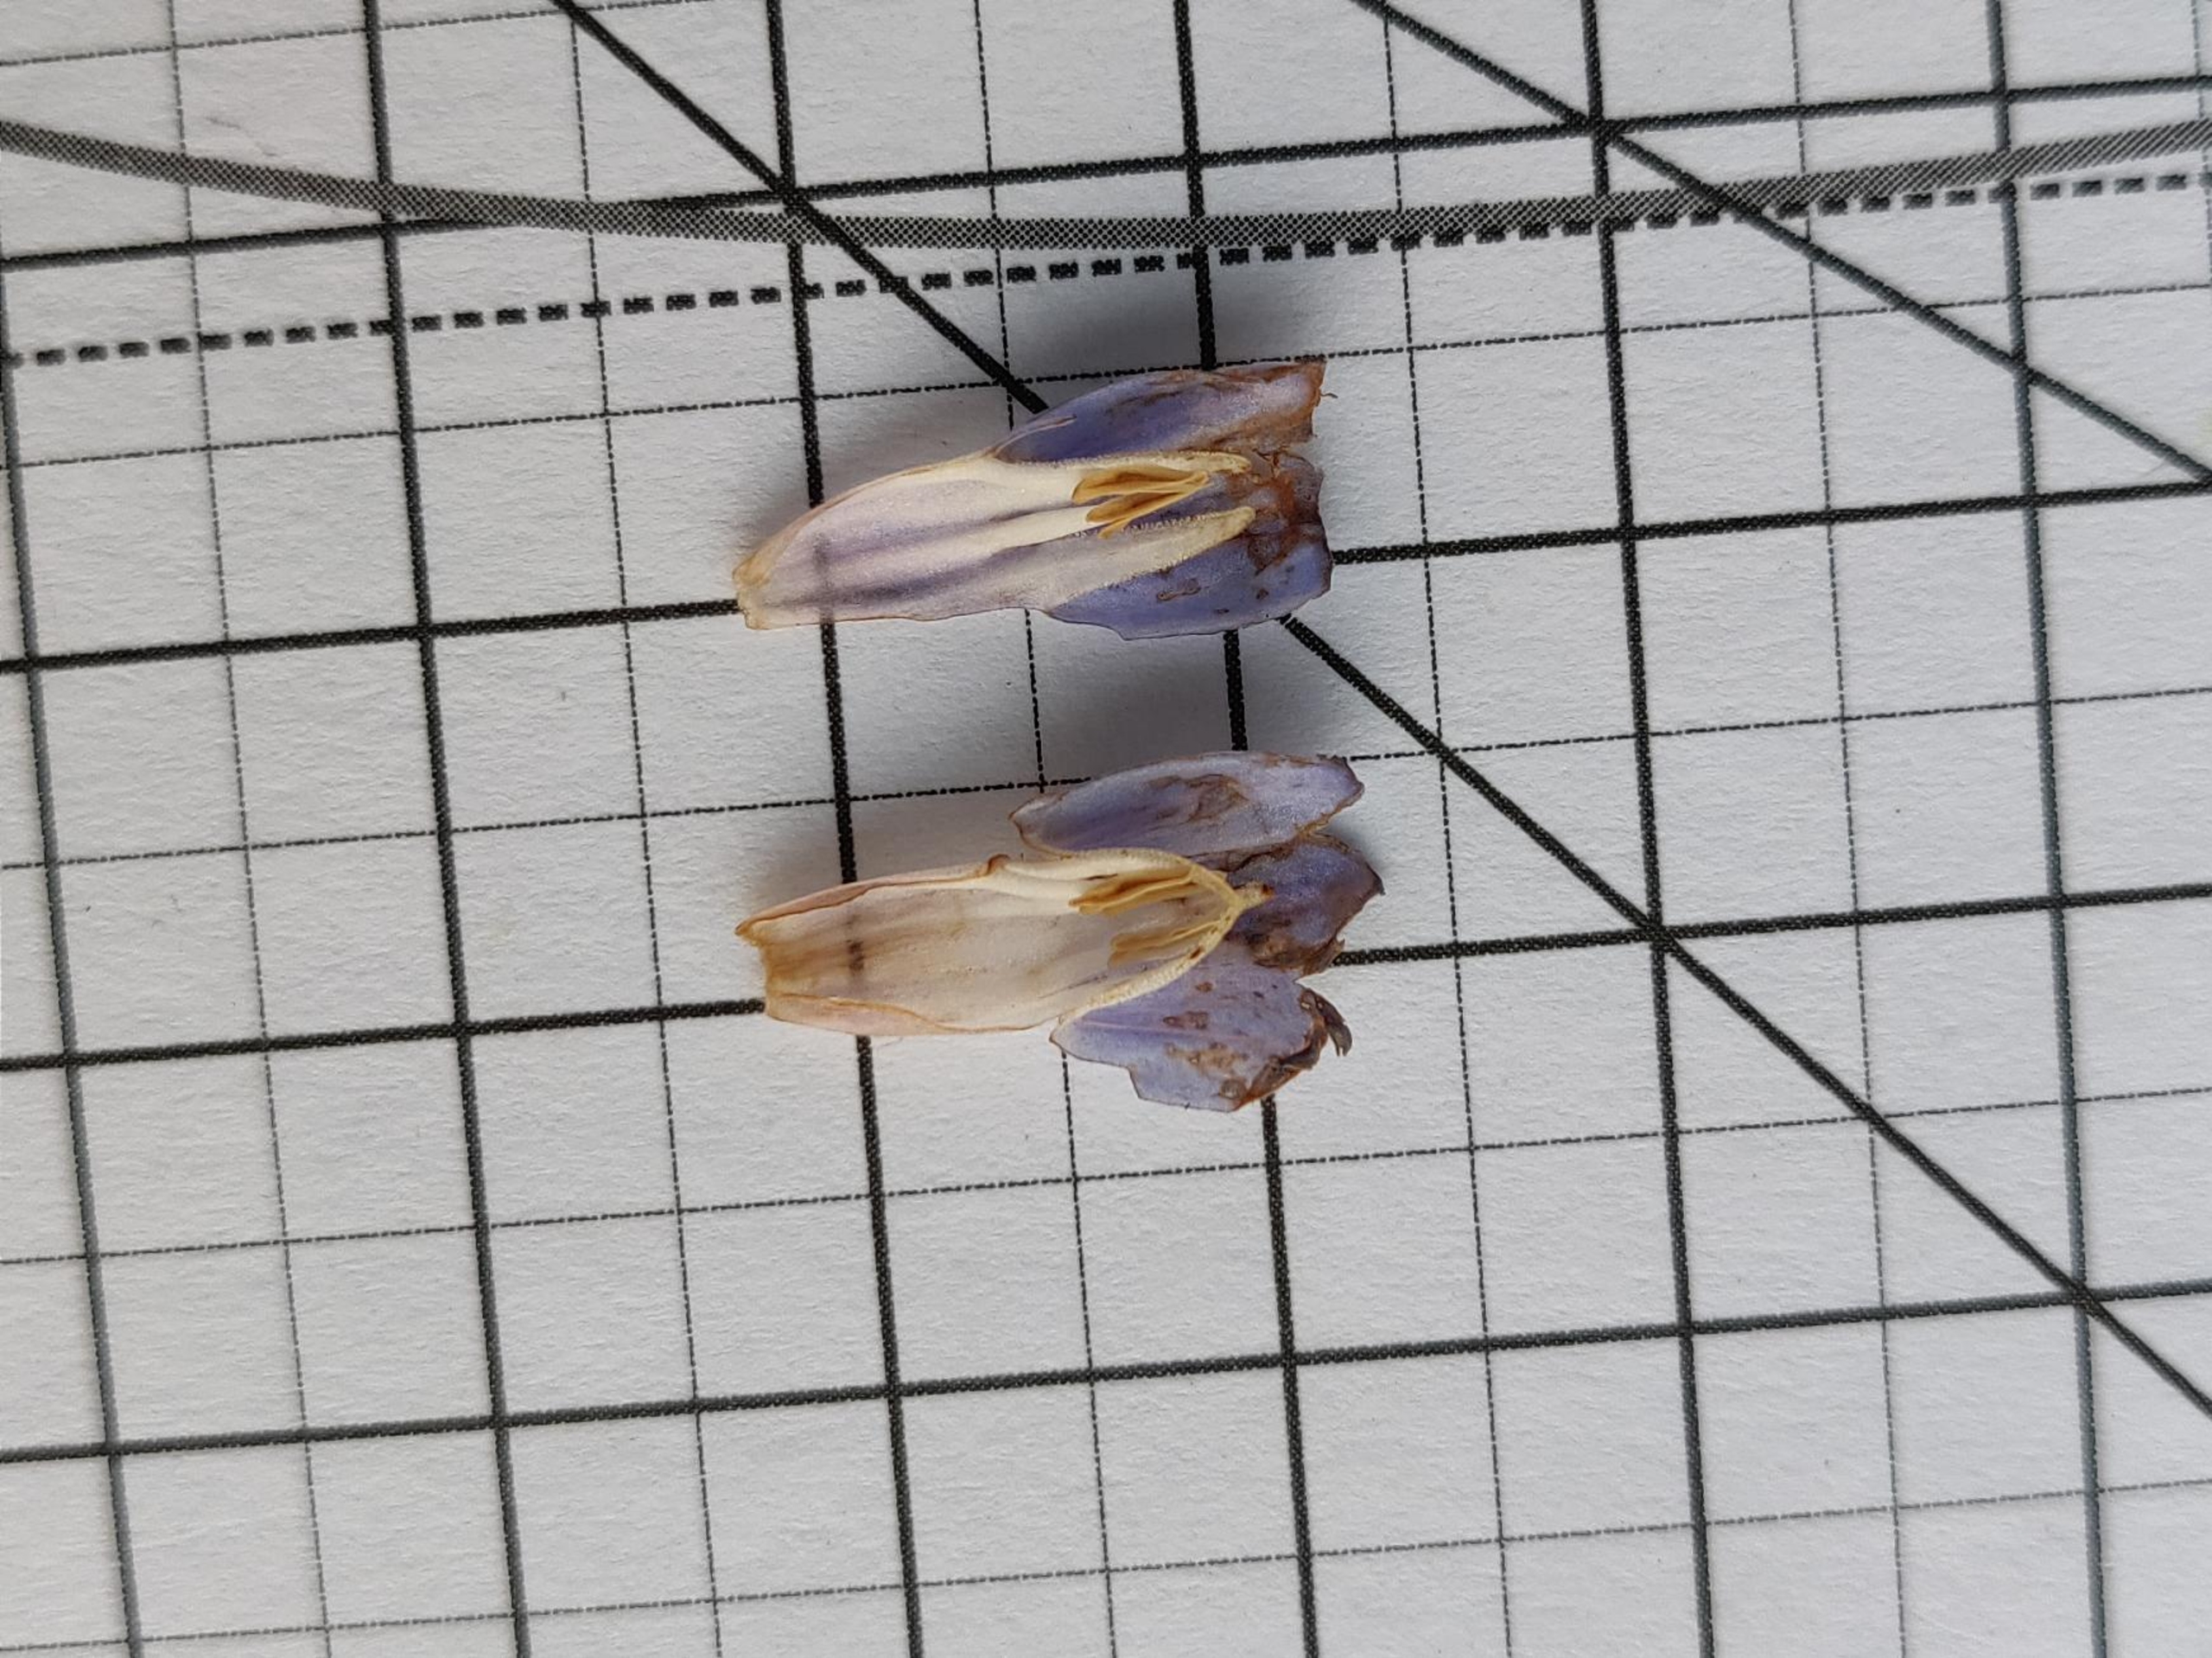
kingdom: Plantae
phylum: Tracheophyta
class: Magnoliopsida
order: Boraginales
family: Boraginaceae
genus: Symphytum
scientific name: Symphytum uplandicum
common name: Foder-kulsukker
